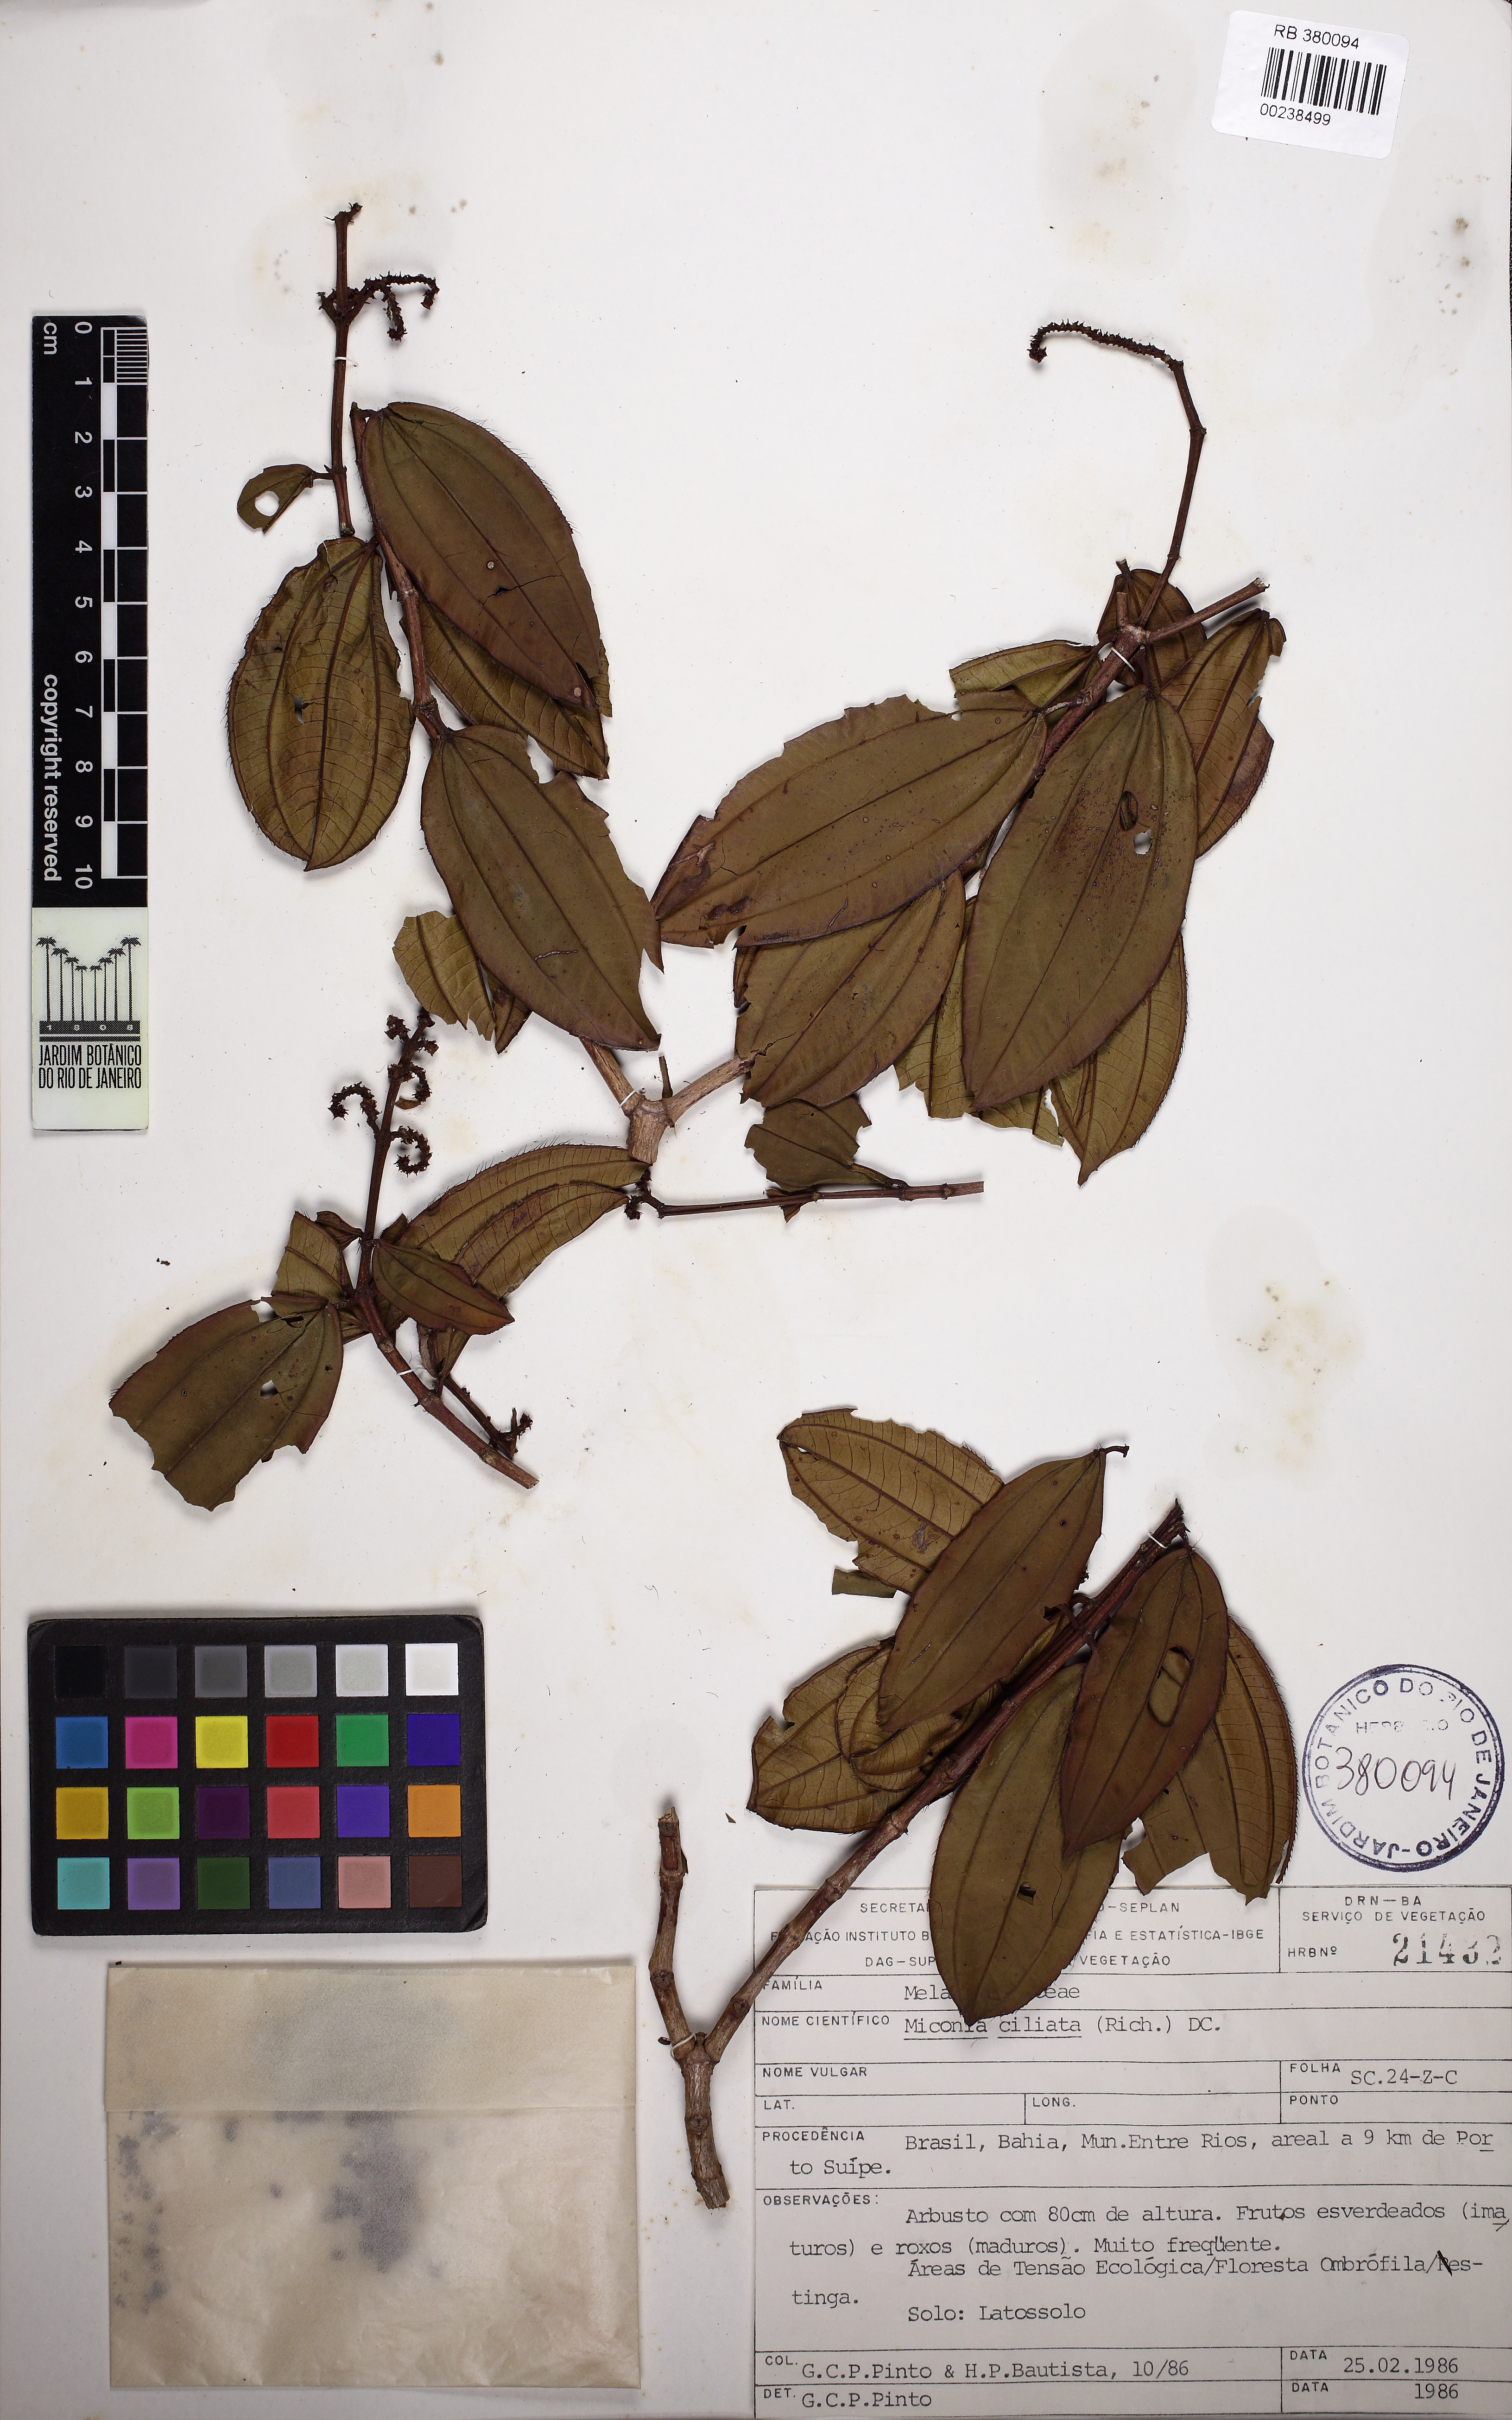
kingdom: Plantae
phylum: Tracheophyta
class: Magnoliopsida
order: Myrtales
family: Melastomataceae
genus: Miconia
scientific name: Miconia ciliata
